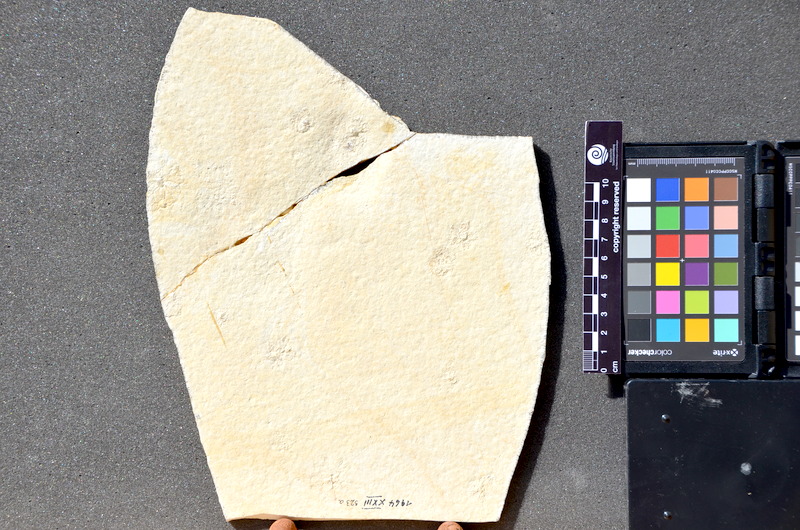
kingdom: Animalia
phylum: Chordata
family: Pycnodontes
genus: Macromesodon
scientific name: Macromesodon
